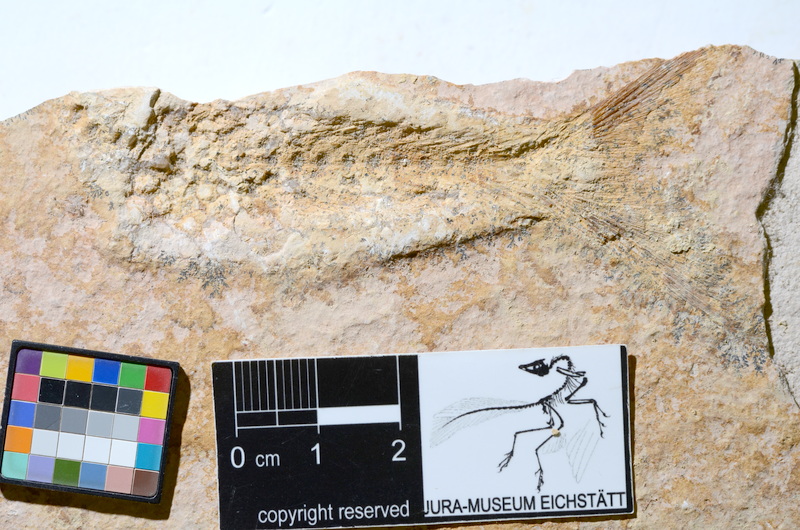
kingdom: Animalia
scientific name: Animalia
